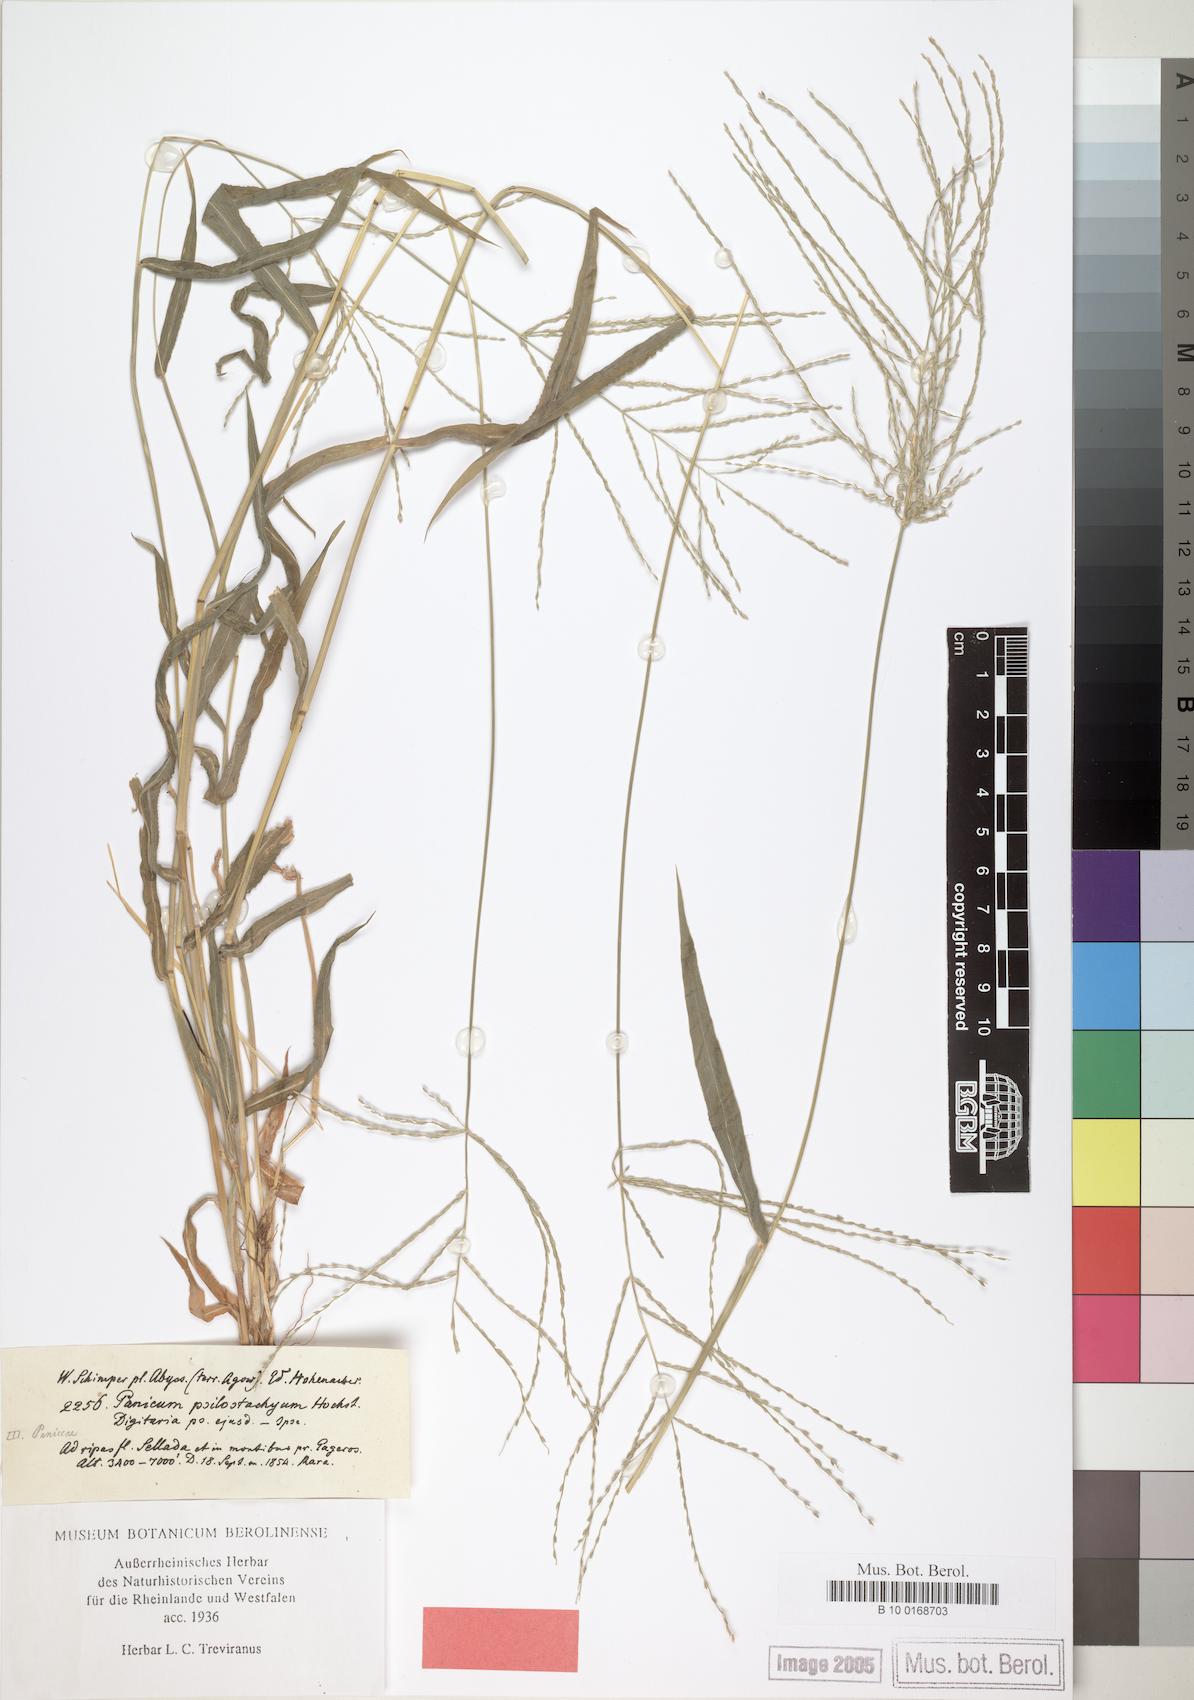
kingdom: Plantae
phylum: Tracheophyta
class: Liliopsida
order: Poales
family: Poaceae
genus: Digitaria
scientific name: Digitaria velutina
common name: Long-plume finger grass
